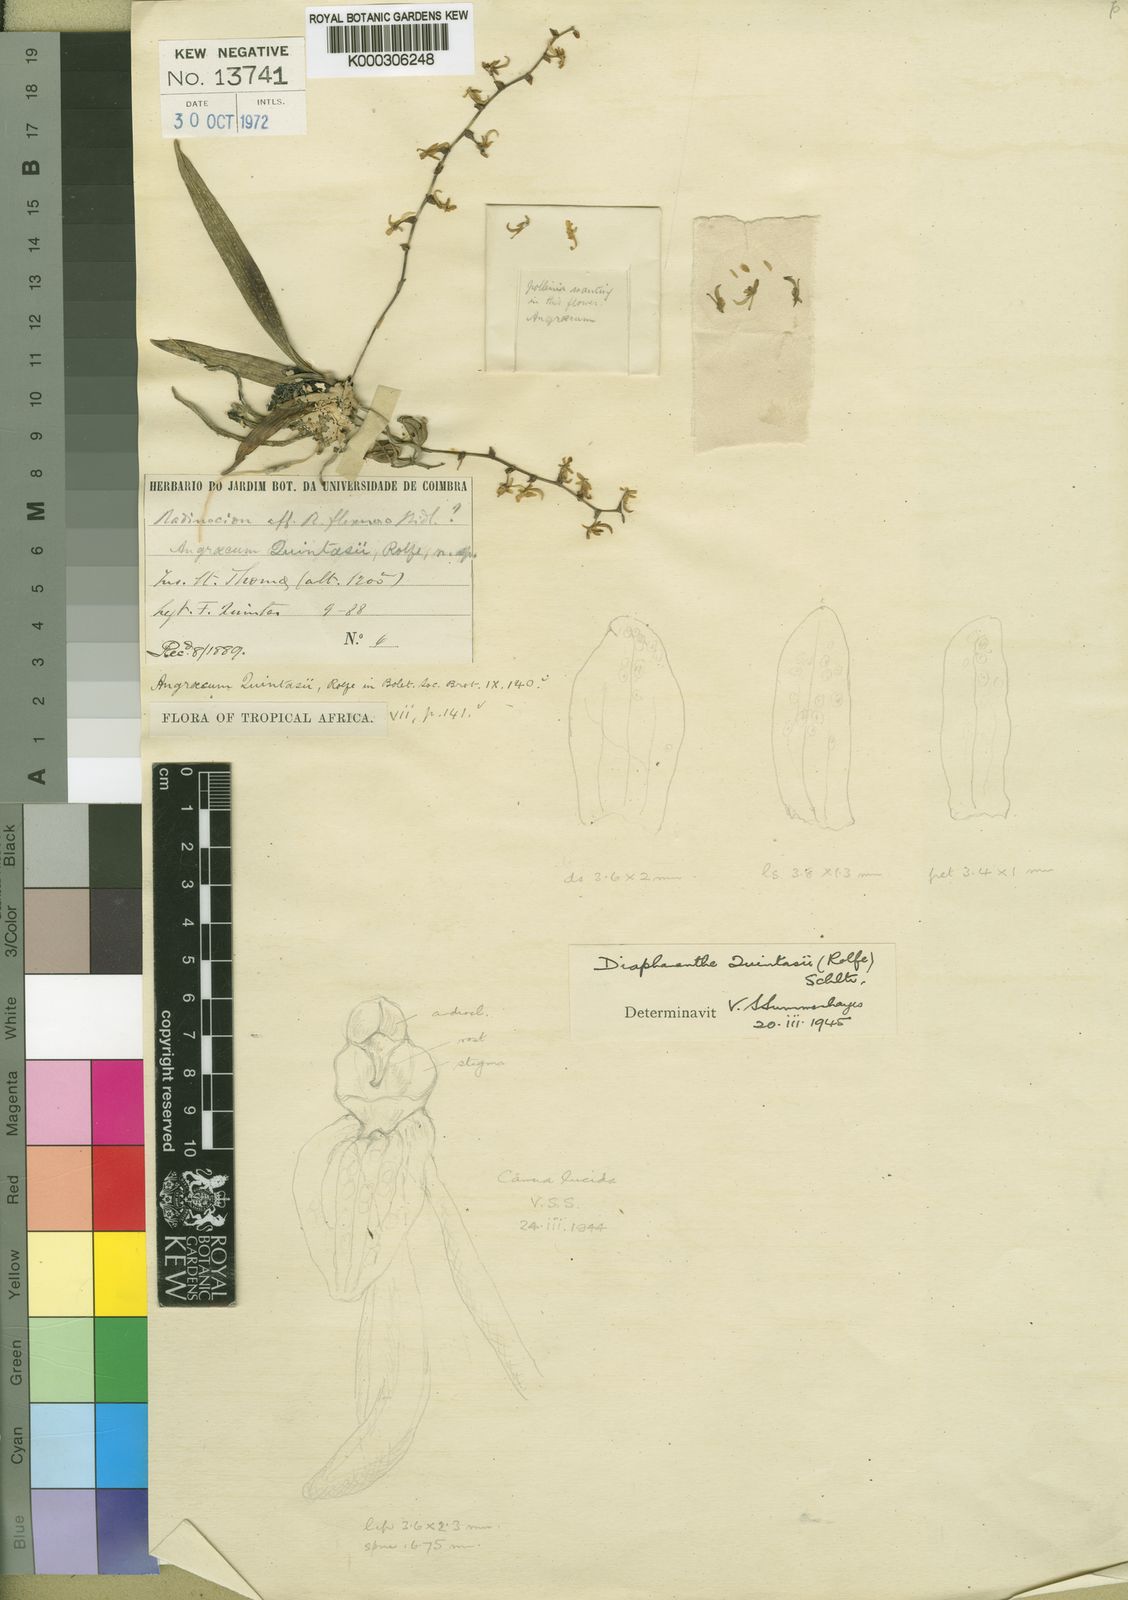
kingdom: Plantae
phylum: Tracheophyta
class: Liliopsida
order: Asparagales
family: Orchidaceae
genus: Kylicanthe
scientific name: Kylicanthe rohrii
